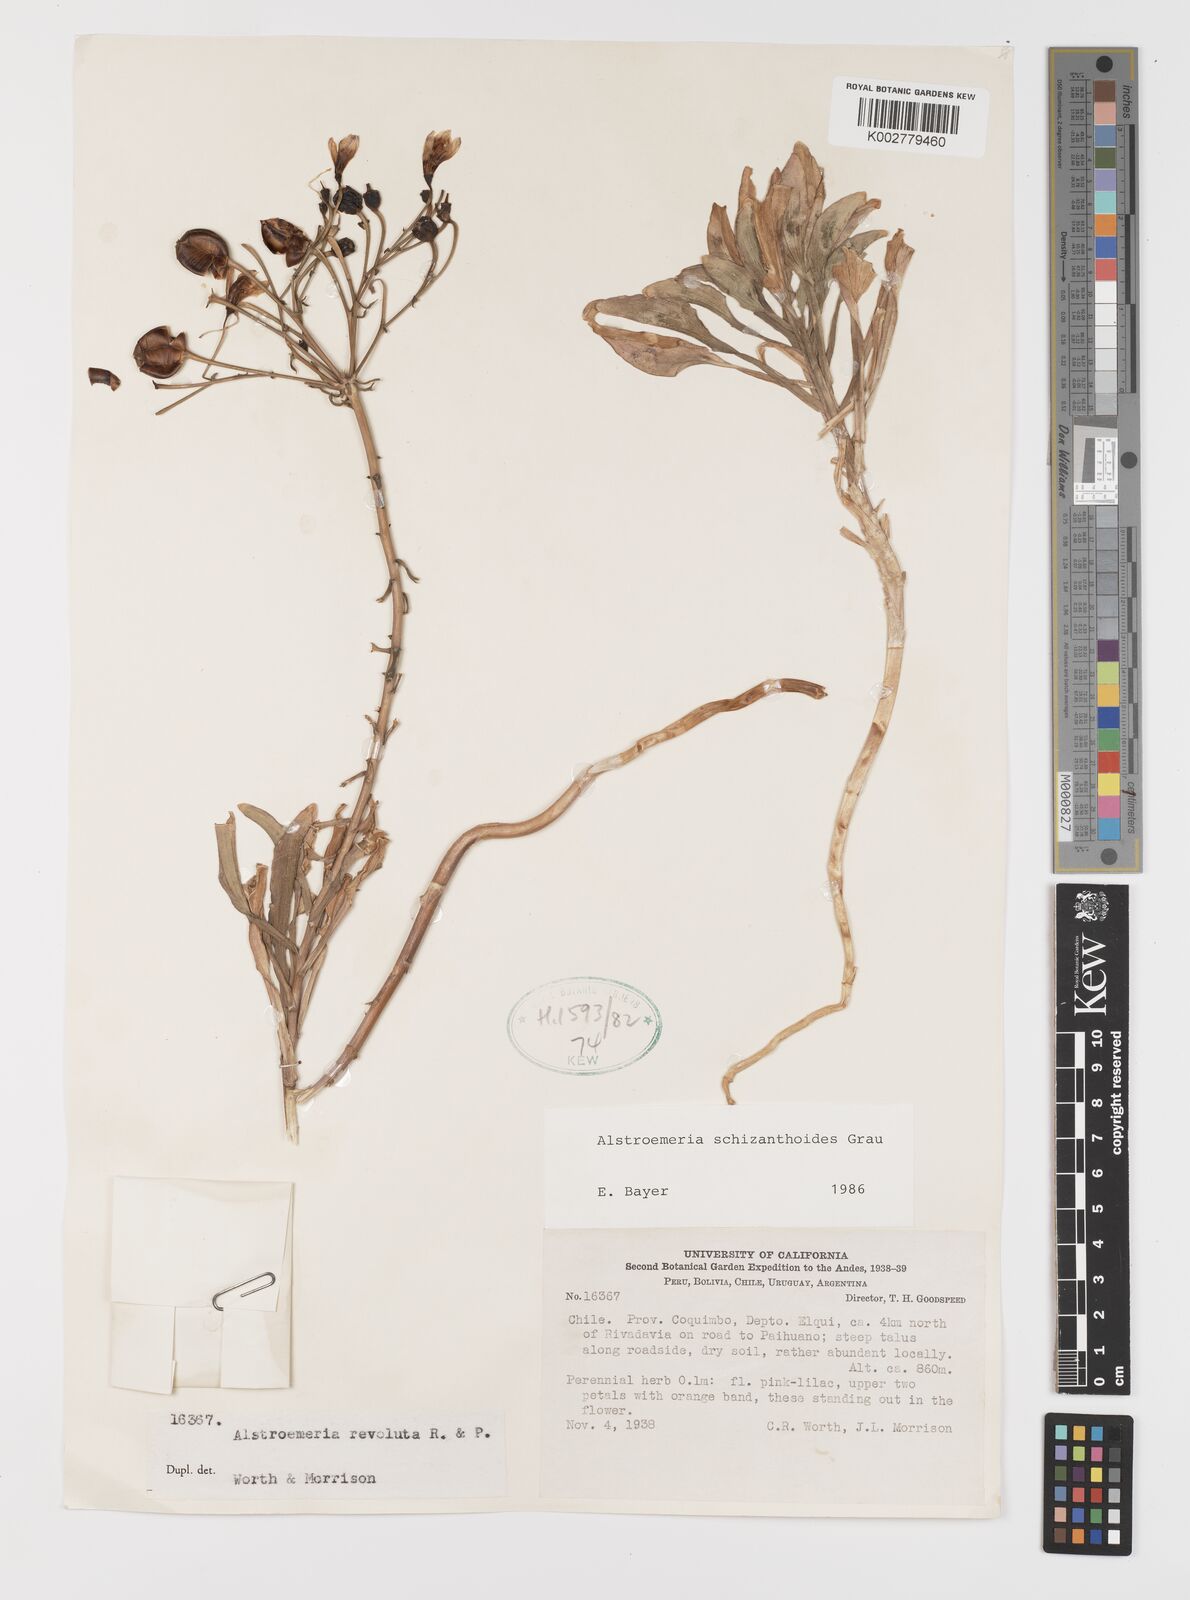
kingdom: Plantae
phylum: Tracheophyta
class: Liliopsida
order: Liliales
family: Alstroemeriaceae
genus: Alstroemeria
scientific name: Alstroemeria schizanthoides
